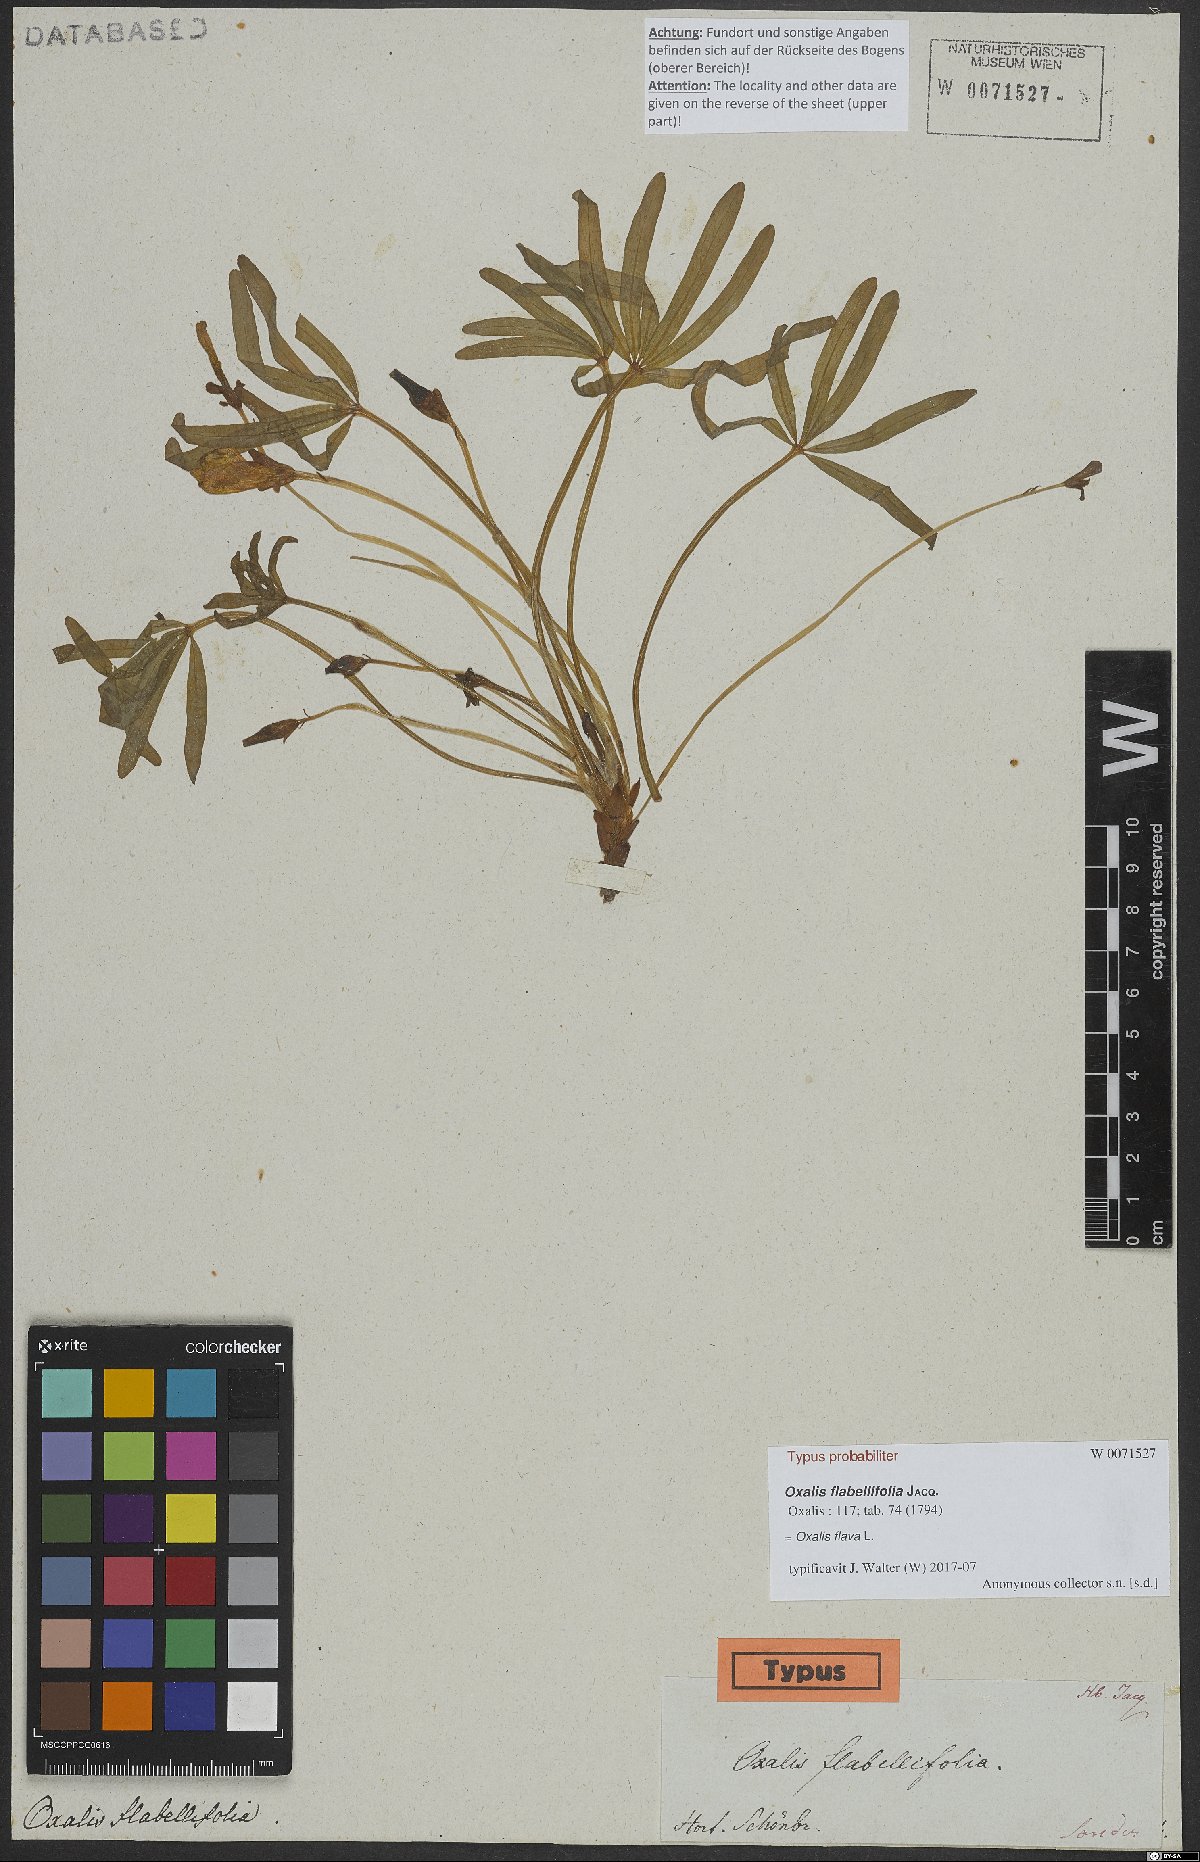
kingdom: Plantae
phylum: Tracheophyta
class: Magnoliopsida
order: Oxalidales
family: Oxalidaceae
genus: Oxalis
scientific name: Oxalis flava
